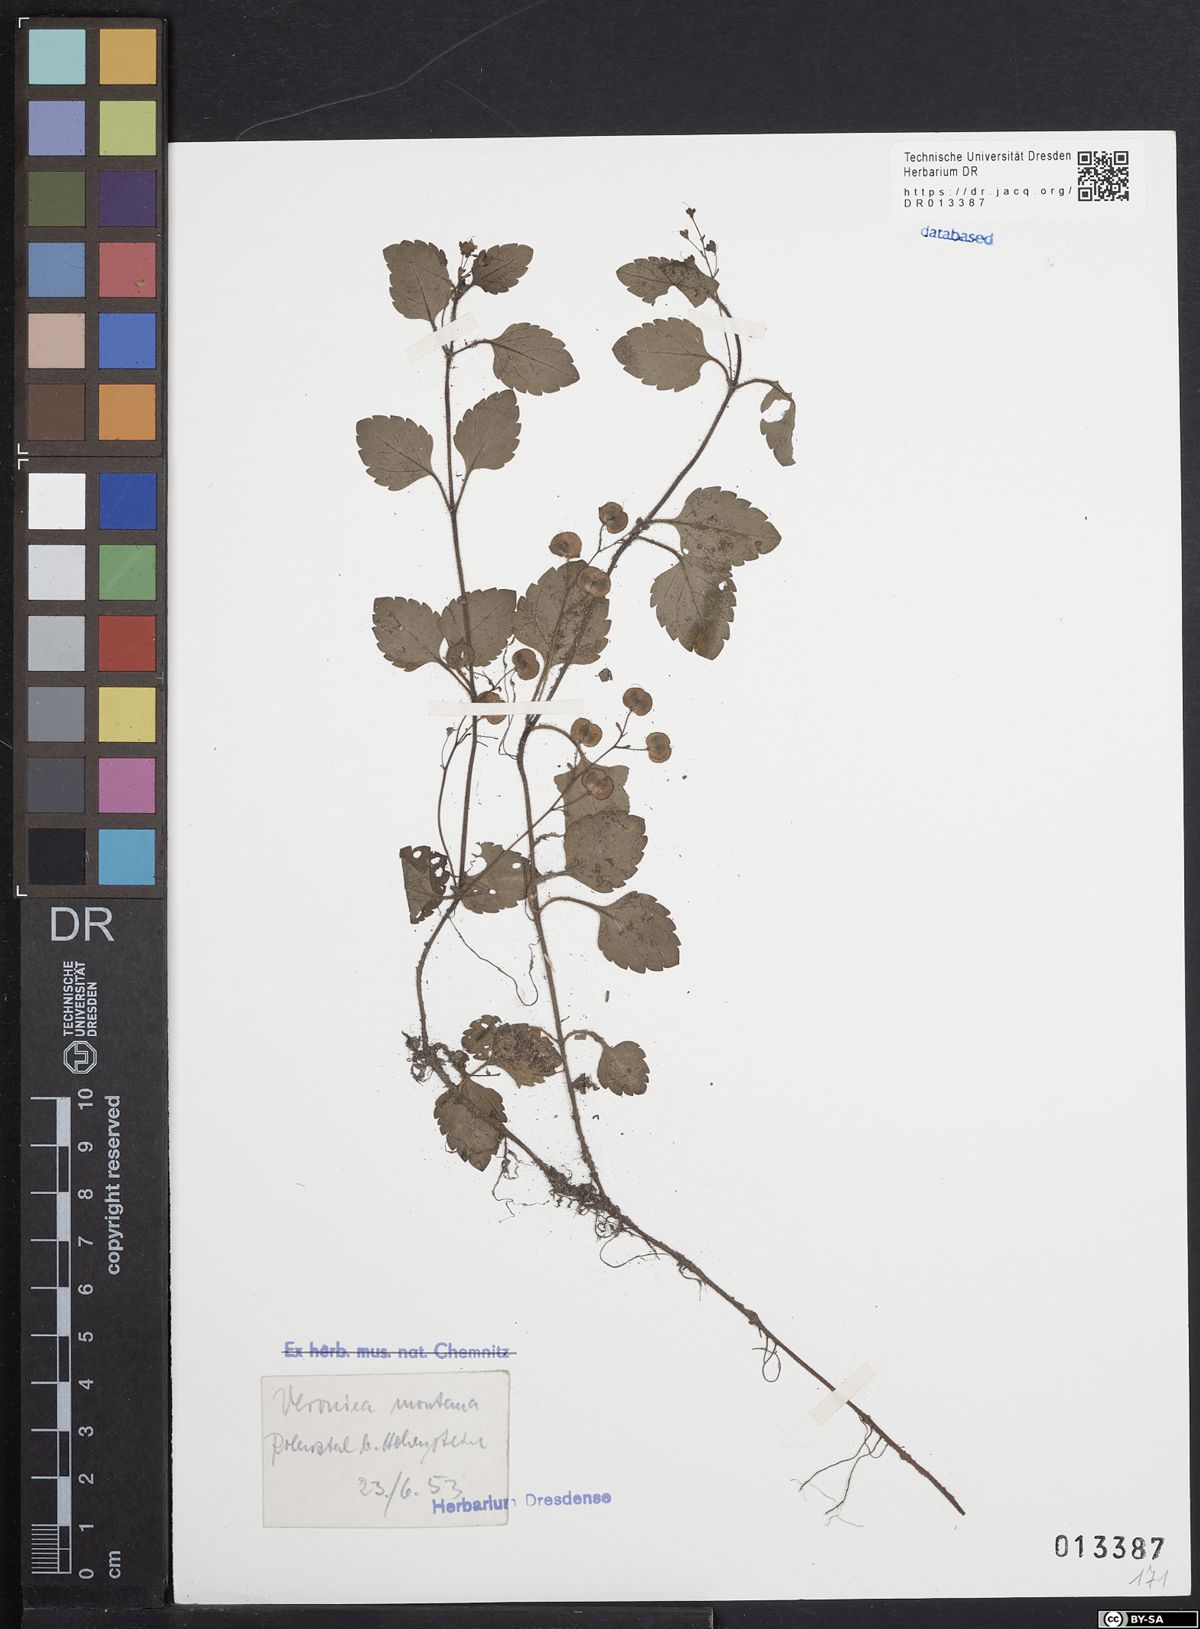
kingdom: Plantae
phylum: Tracheophyta
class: Magnoliopsida
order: Lamiales
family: Plantaginaceae
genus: Veronica
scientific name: Veronica montana
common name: Wood speedwell
